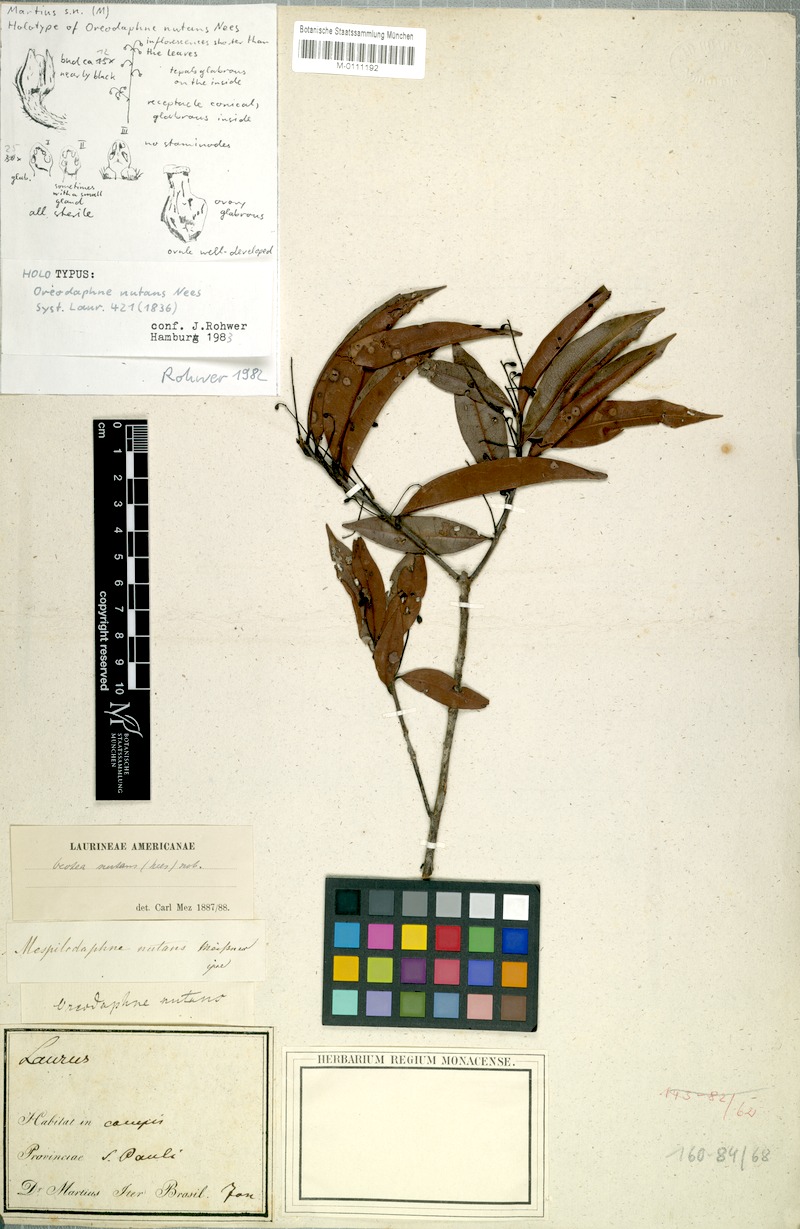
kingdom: Plantae
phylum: Tracheophyta
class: Magnoliopsida
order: Laurales
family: Lauraceae
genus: Mespilodaphne
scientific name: Mespilodaphne nutans
